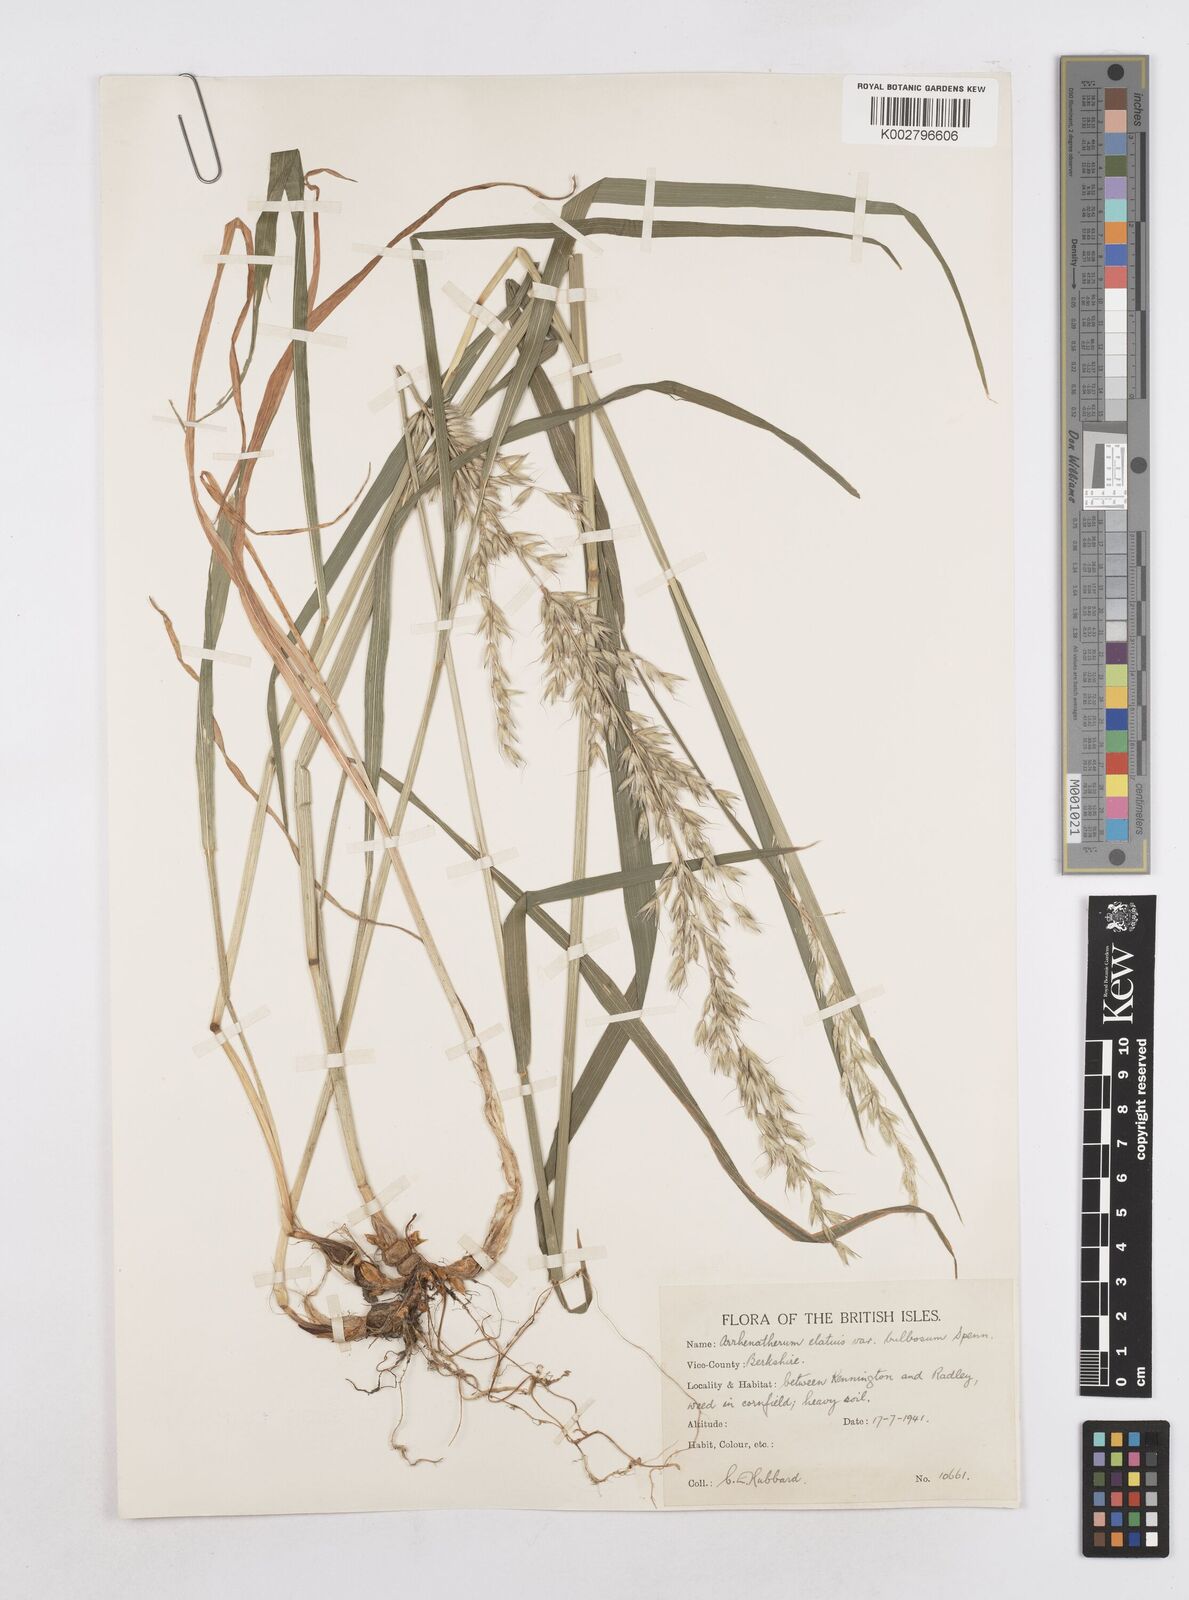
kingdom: Plantae
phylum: Tracheophyta
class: Liliopsida
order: Poales
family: Poaceae
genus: Arrhenatherum
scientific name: Arrhenatherum elatius
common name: Tall oatgrass
